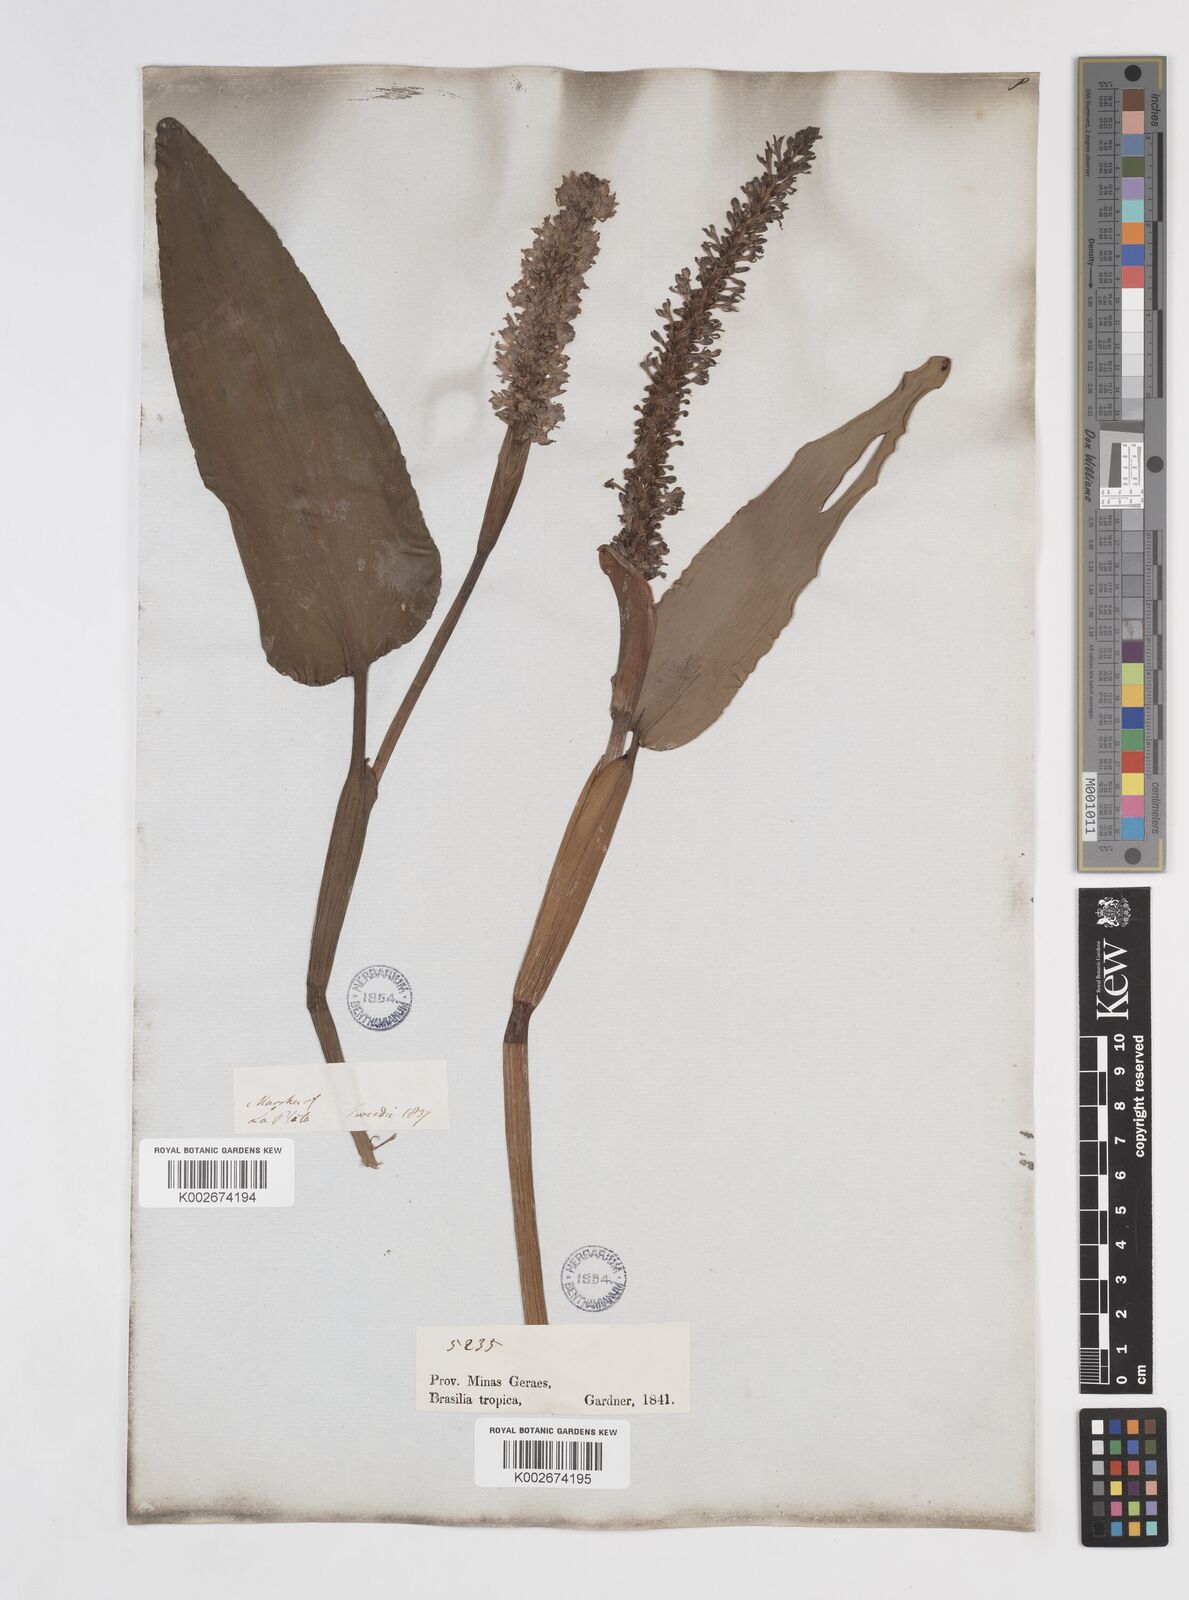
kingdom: Plantae
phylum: Tracheophyta
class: Liliopsida
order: Commelinales
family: Pontederiaceae
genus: Pontederia
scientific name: Pontederia
